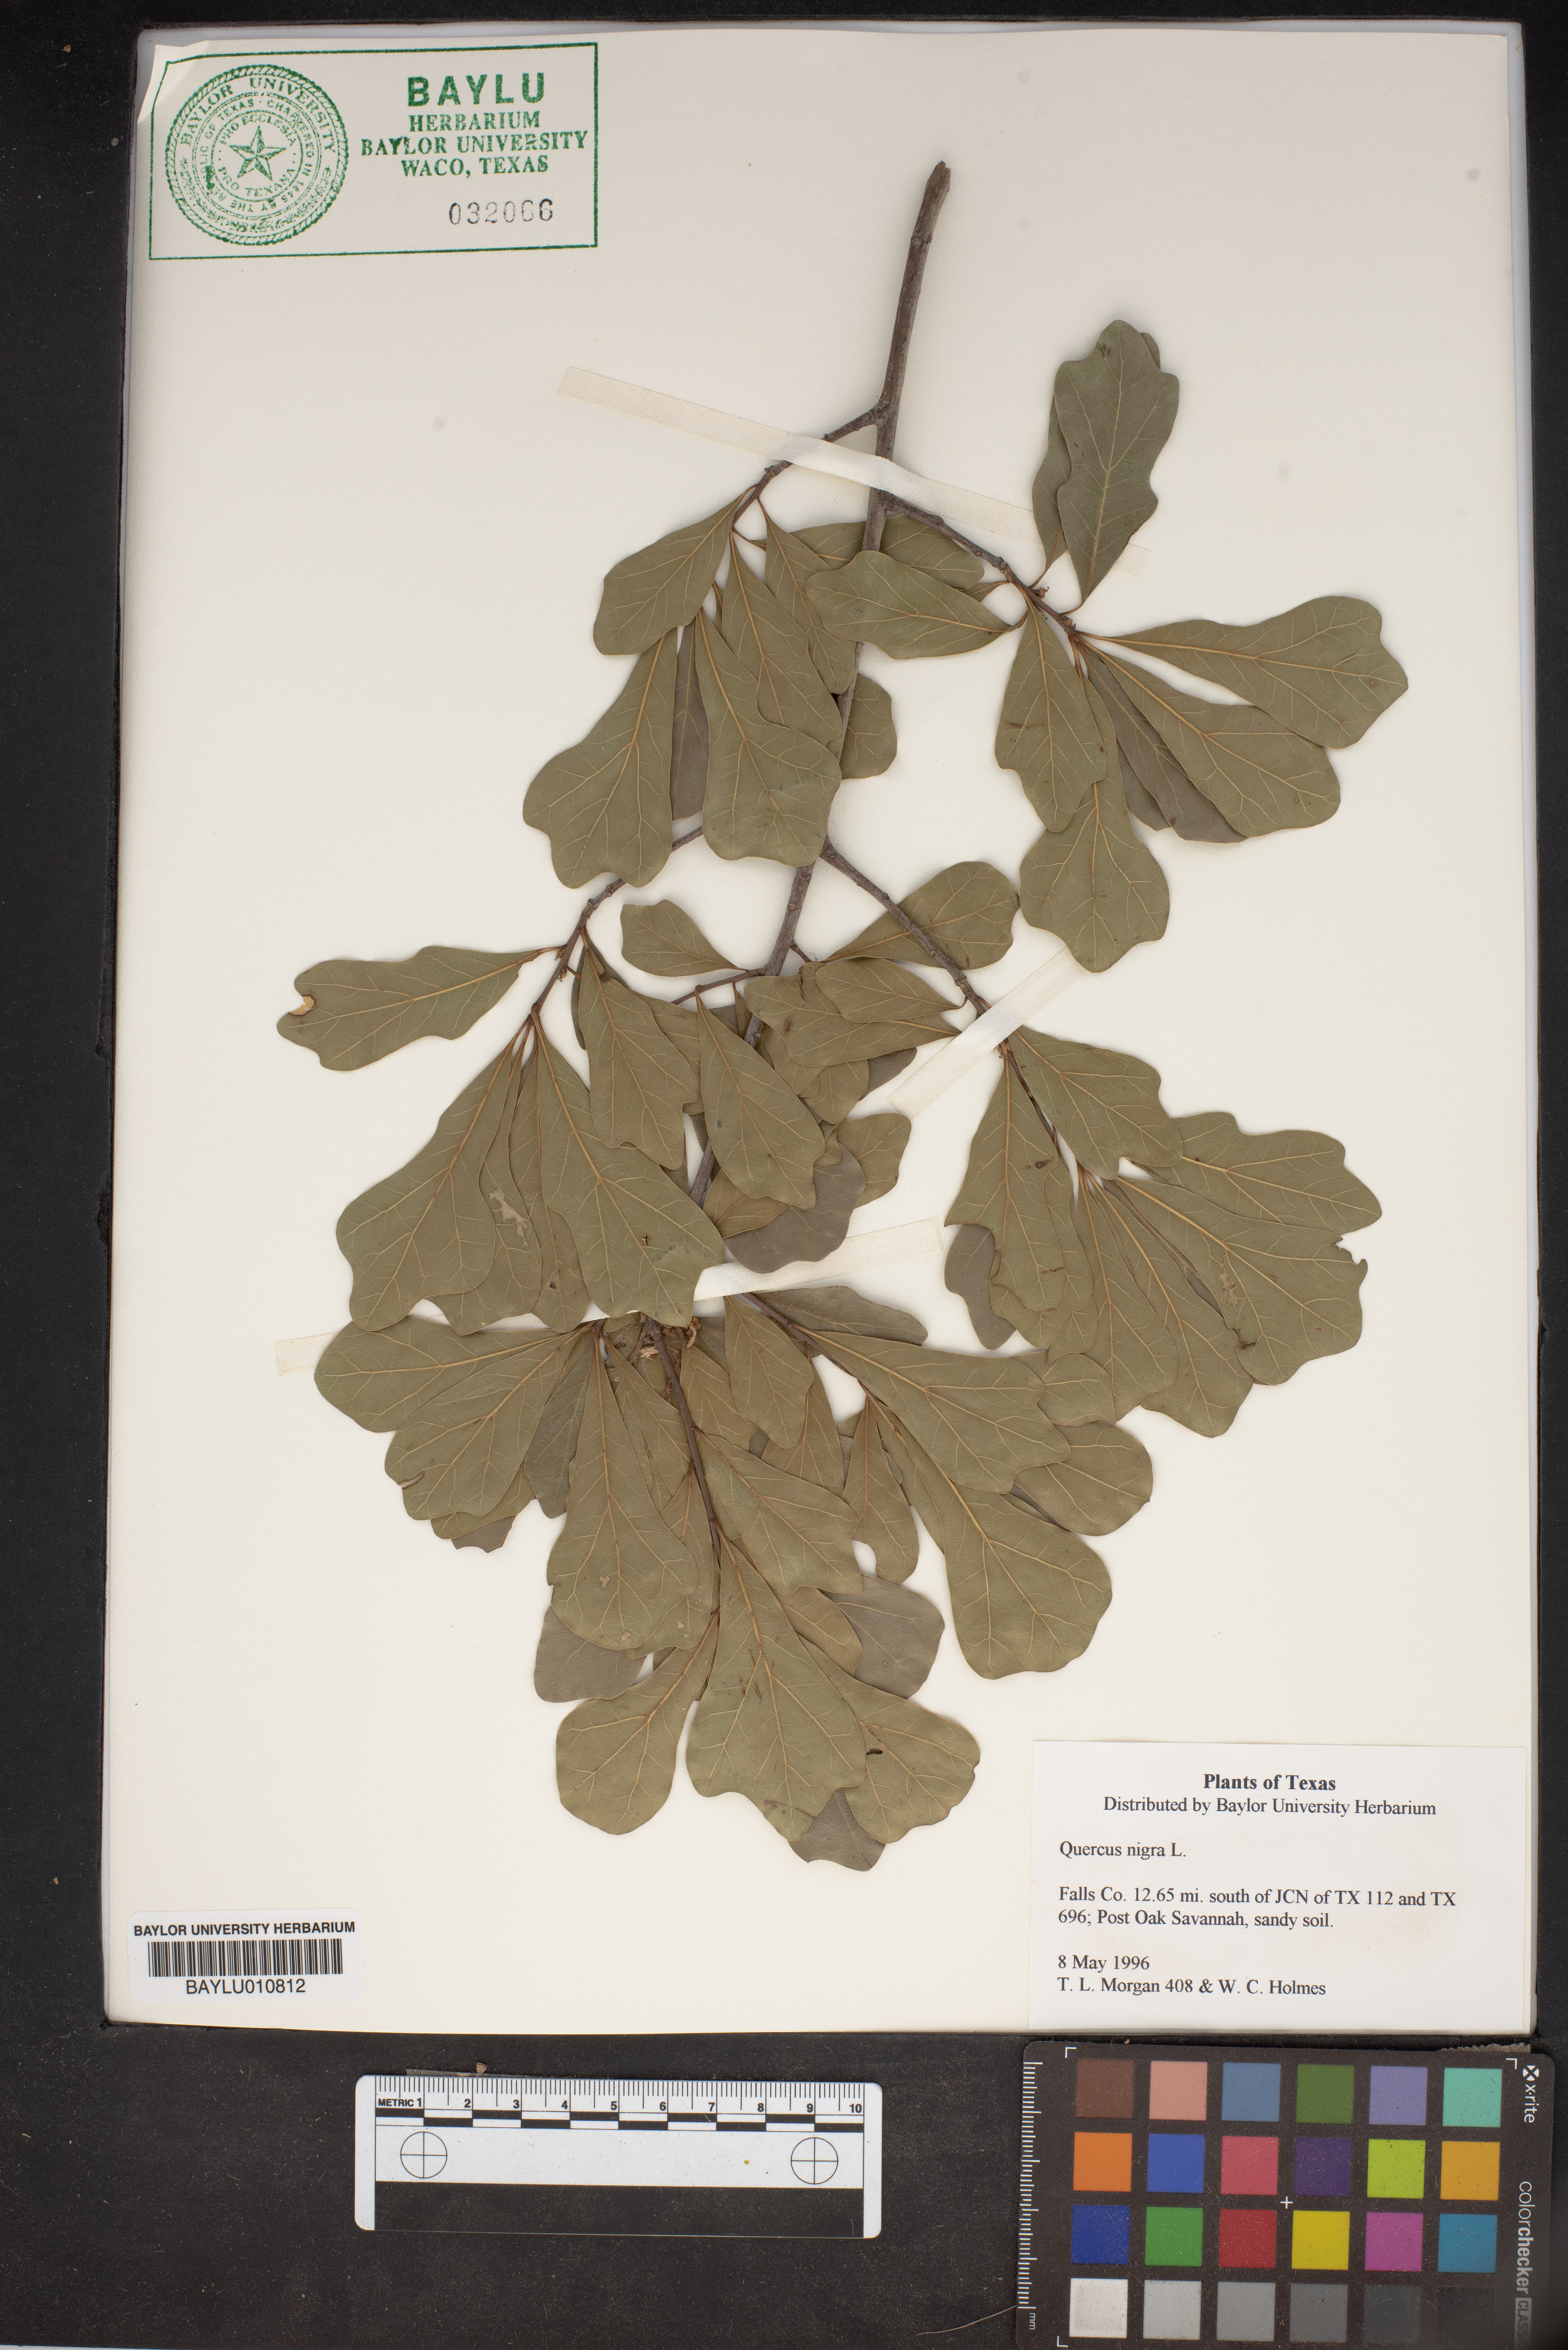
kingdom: Plantae
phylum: Tracheophyta
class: Magnoliopsida
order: Fagales
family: Fagaceae
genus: Quercus
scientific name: Quercus nigra
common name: Water oak
